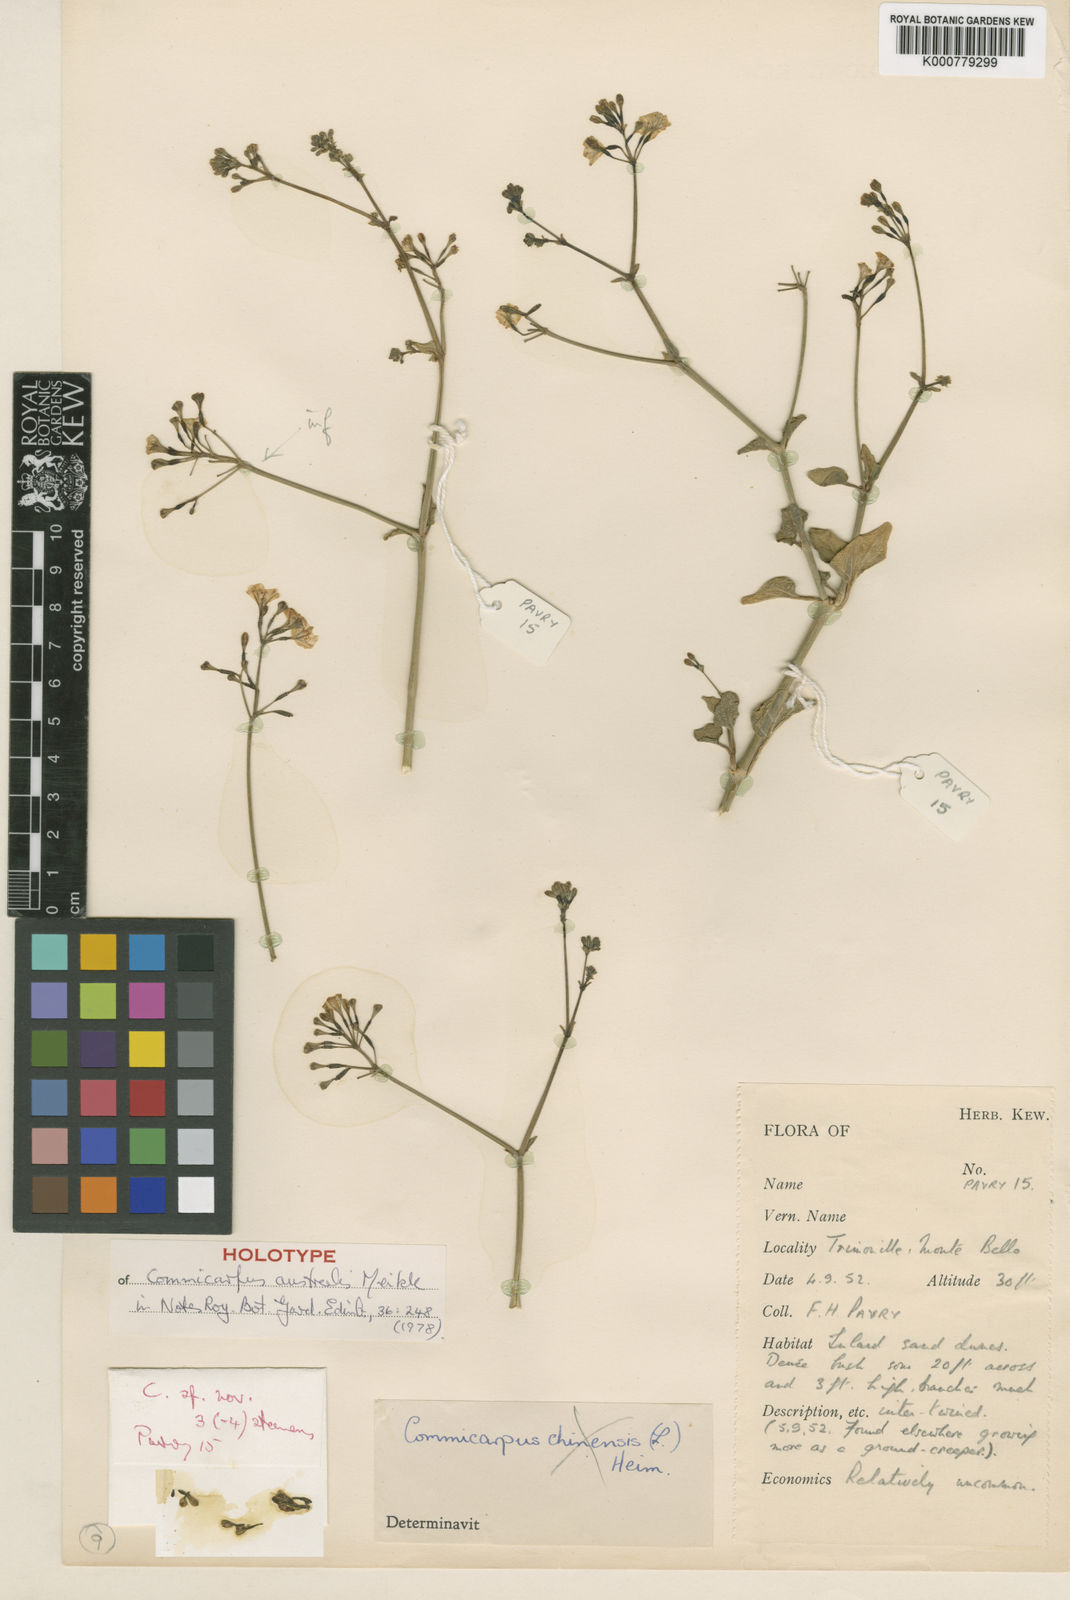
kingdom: Plantae
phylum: Tracheophyta
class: Magnoliopsida
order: Caryophyllales
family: Nyctaginaceae
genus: Commicarpus
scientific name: Commicarpus australis
